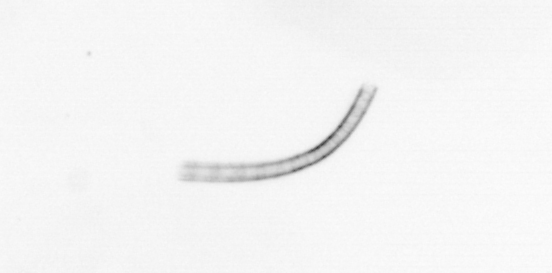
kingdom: Chromista
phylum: Ochrophyta
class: Bacillariophyceae
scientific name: Bacillariophyceae
